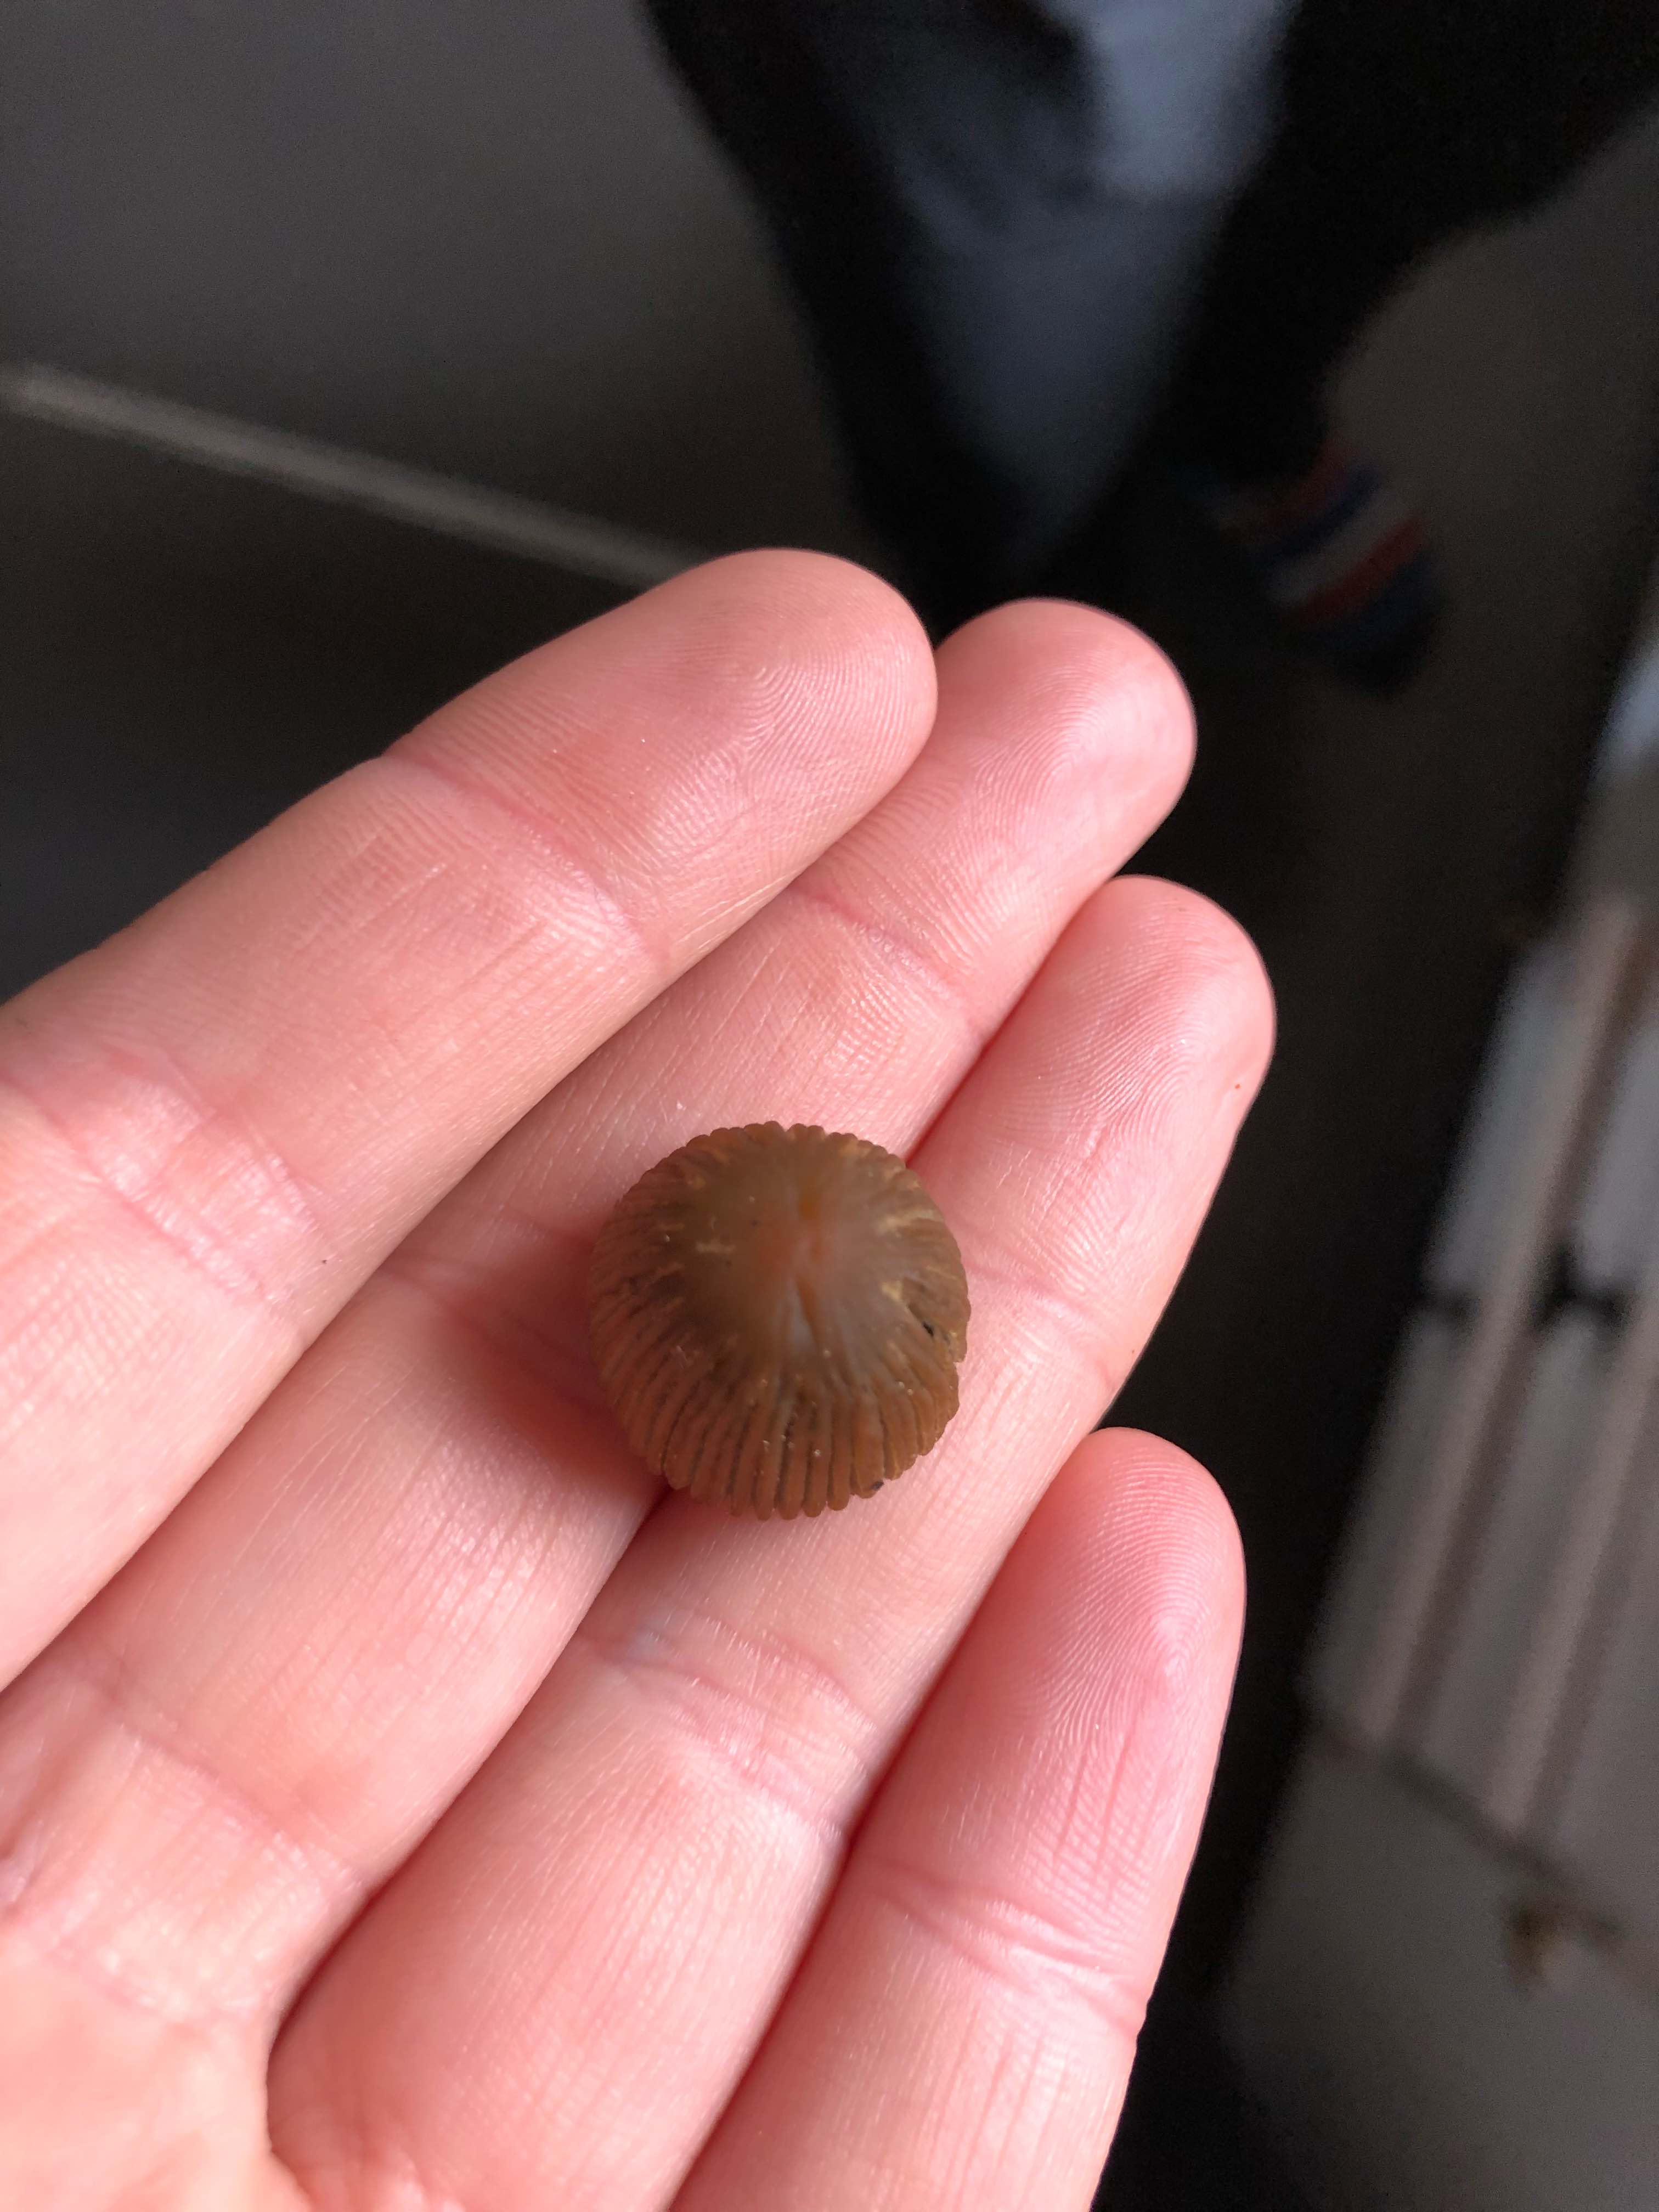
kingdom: Fungi
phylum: Basidiomycota
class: Agaricomycetes
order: Agaricales
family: Psathyrellaceae
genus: Parasola
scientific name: Parasola
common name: hjulhat
